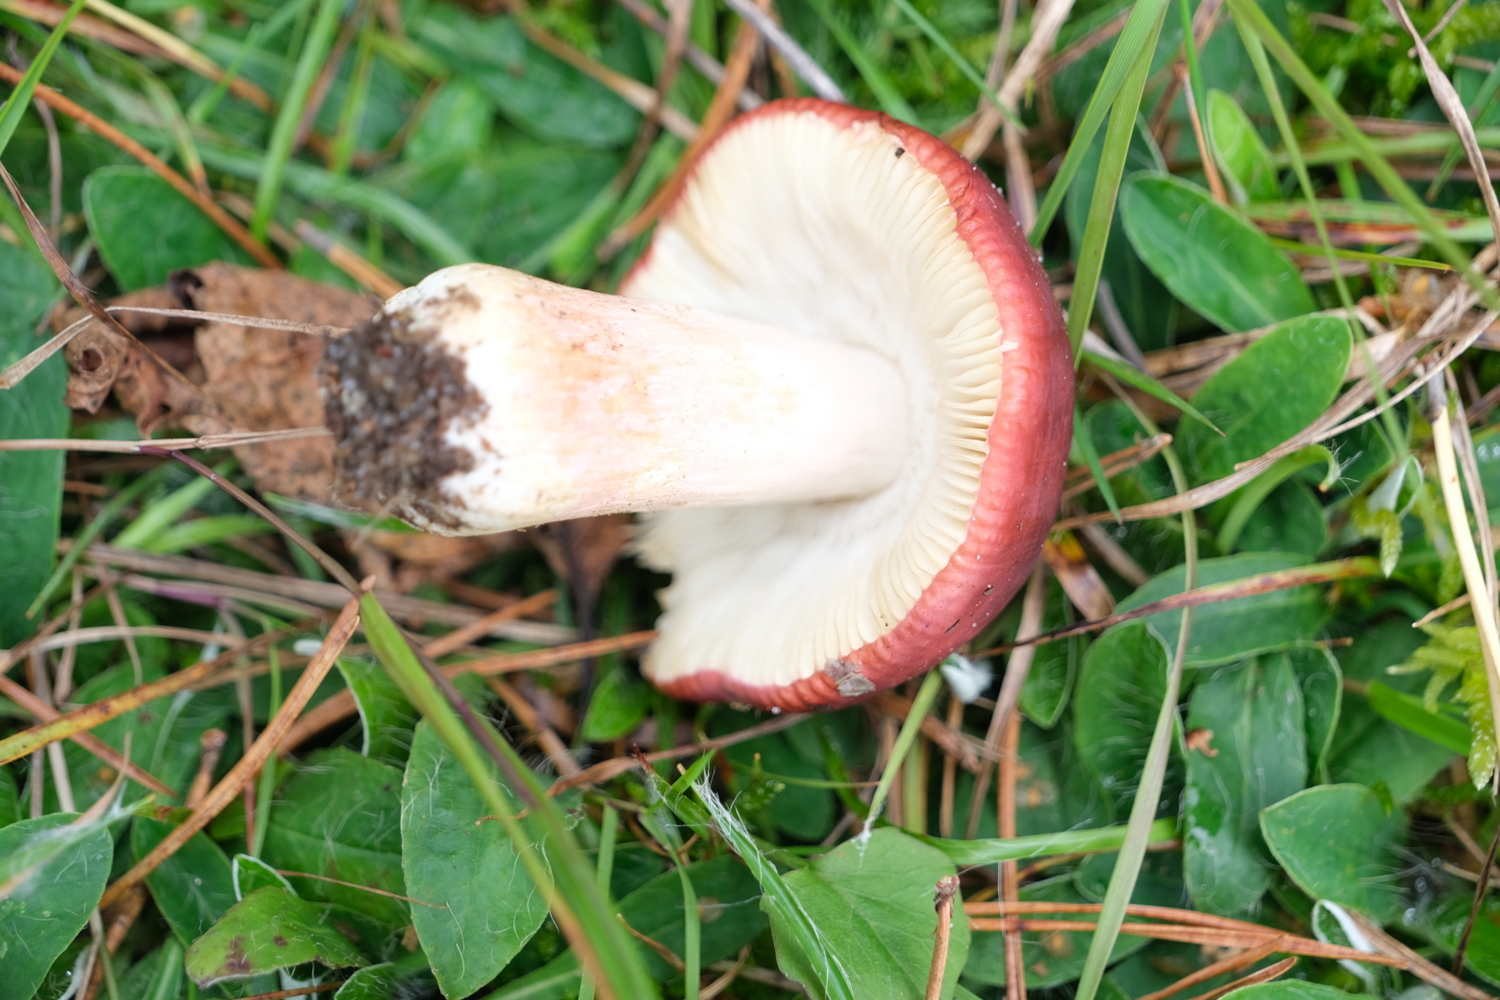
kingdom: Fungi
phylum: Basidiomycota
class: Agaricomycetes
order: Russulales
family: Russulaceae
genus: Russula
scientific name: Russula xerampelina
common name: hummer-skørhat
